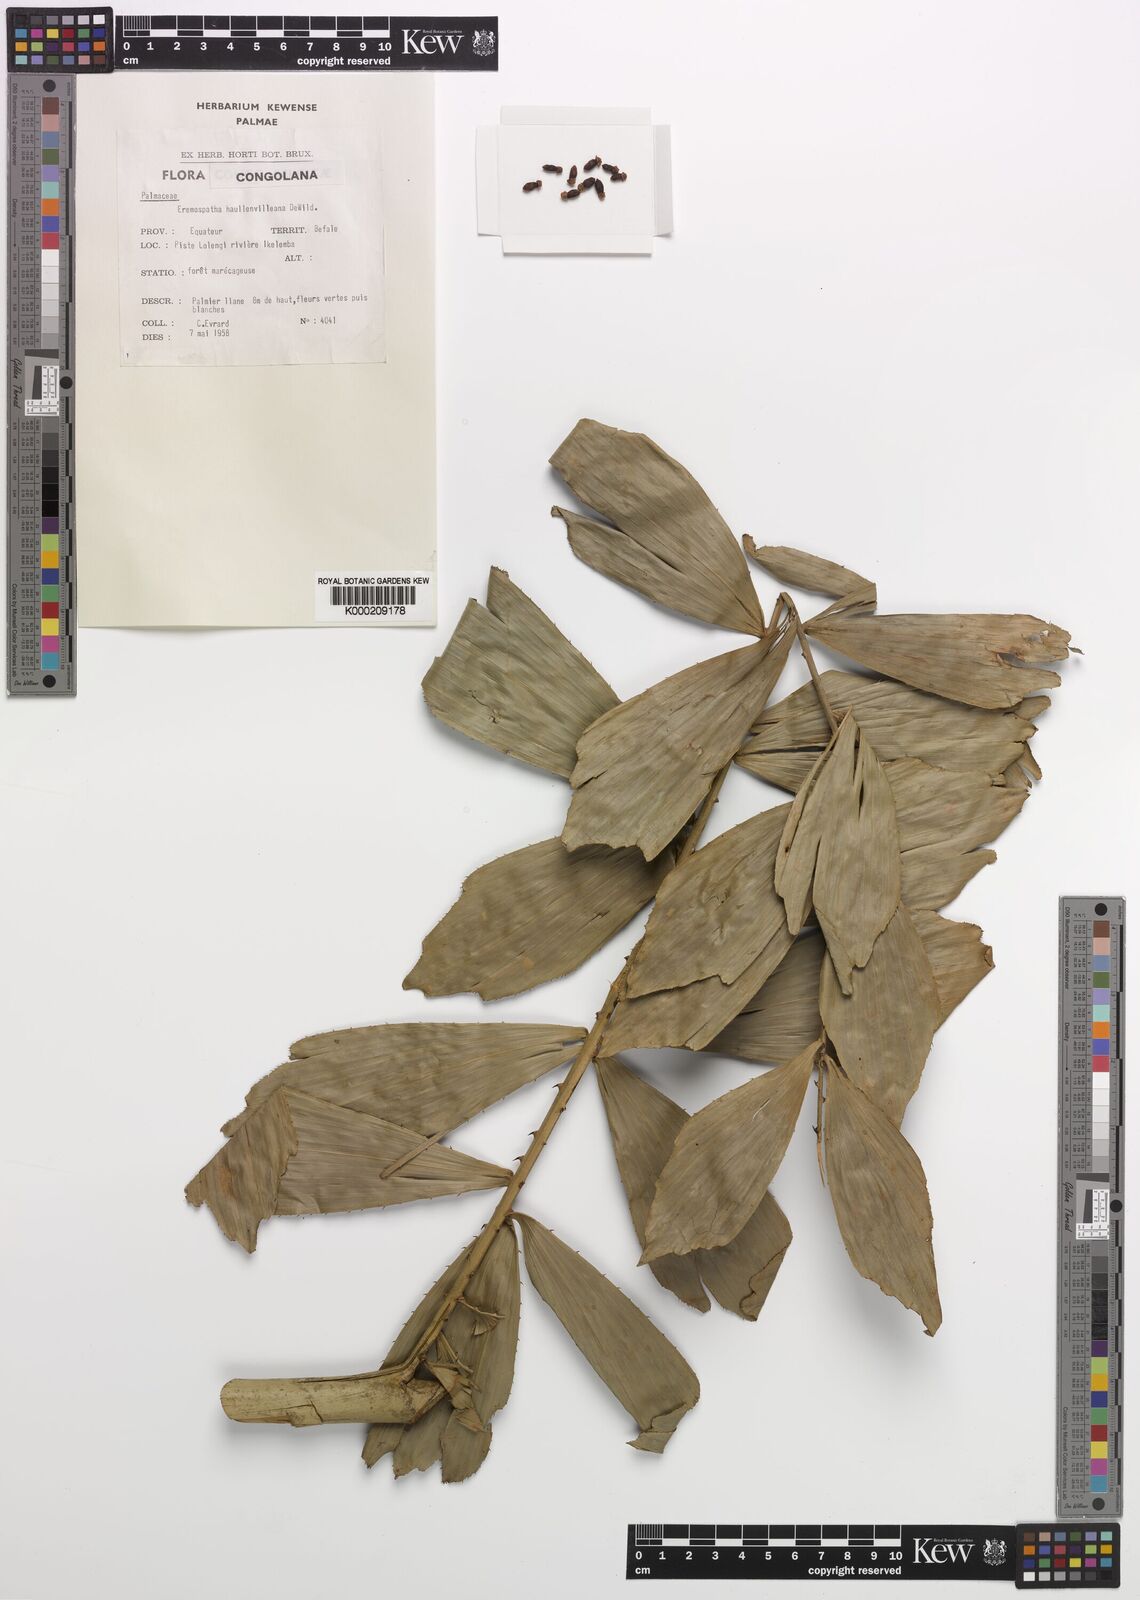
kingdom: Plantae
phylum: Tracheophyta
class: Liliopsida
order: Arecales
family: Arecaceae
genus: Eremospatha
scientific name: Eremospatha haullevilleana
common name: Rattan
